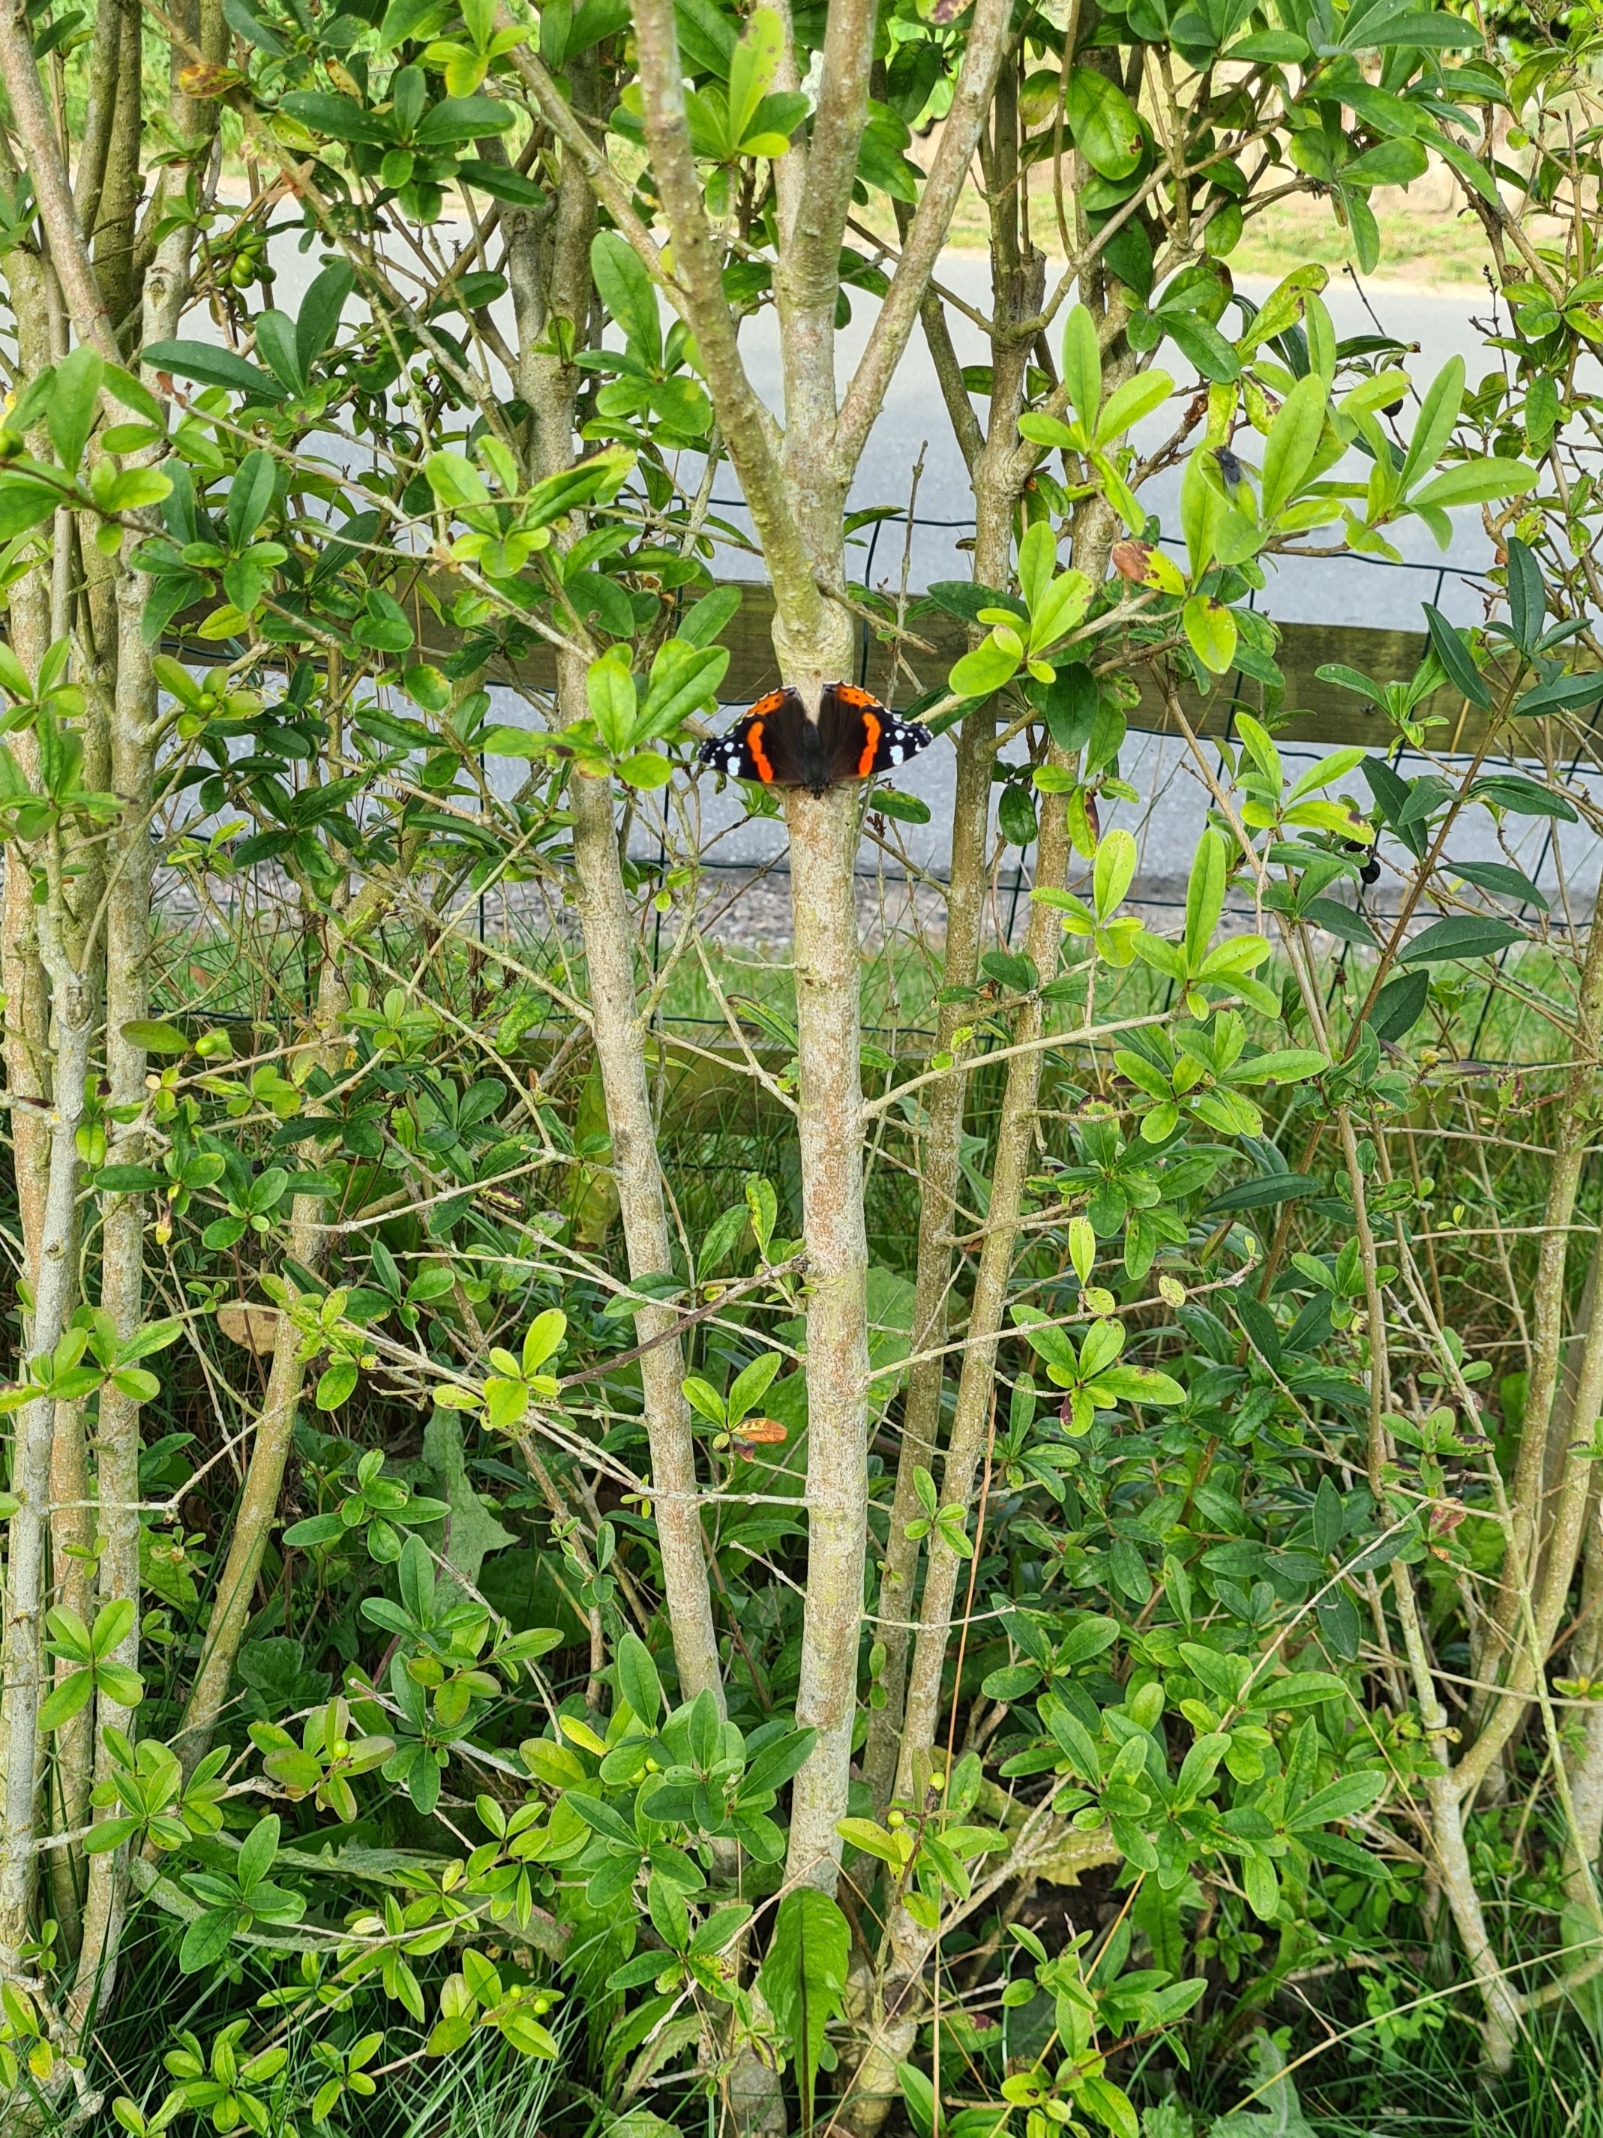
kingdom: Animalia
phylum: Arthropoda
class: Insecta
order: Lepidoptera
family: Nymphalidae
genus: Vanessa
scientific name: Vanessa atalanta
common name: Admiral
